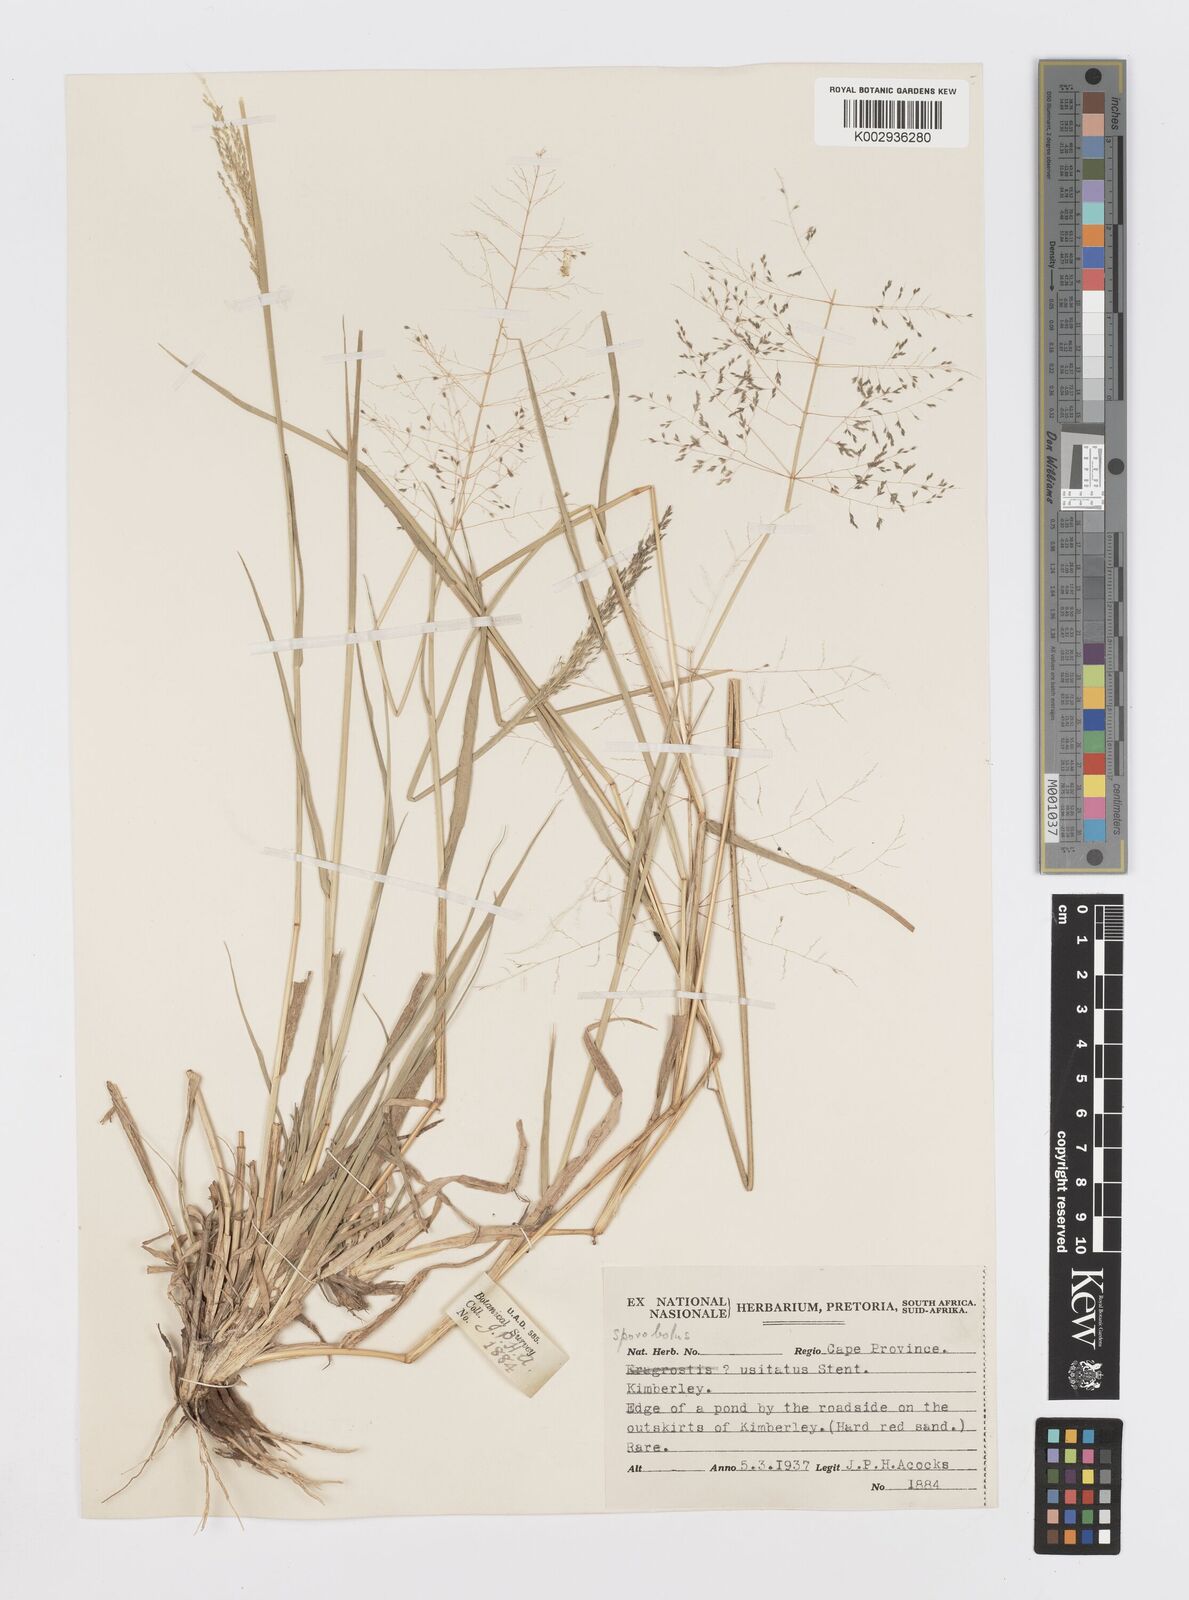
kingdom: Plantae
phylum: Tracheophyta
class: Liliopsida
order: Poales
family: Poaceae
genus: Sporobolus
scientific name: Sporobolus ioclados
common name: Pan dropseed
